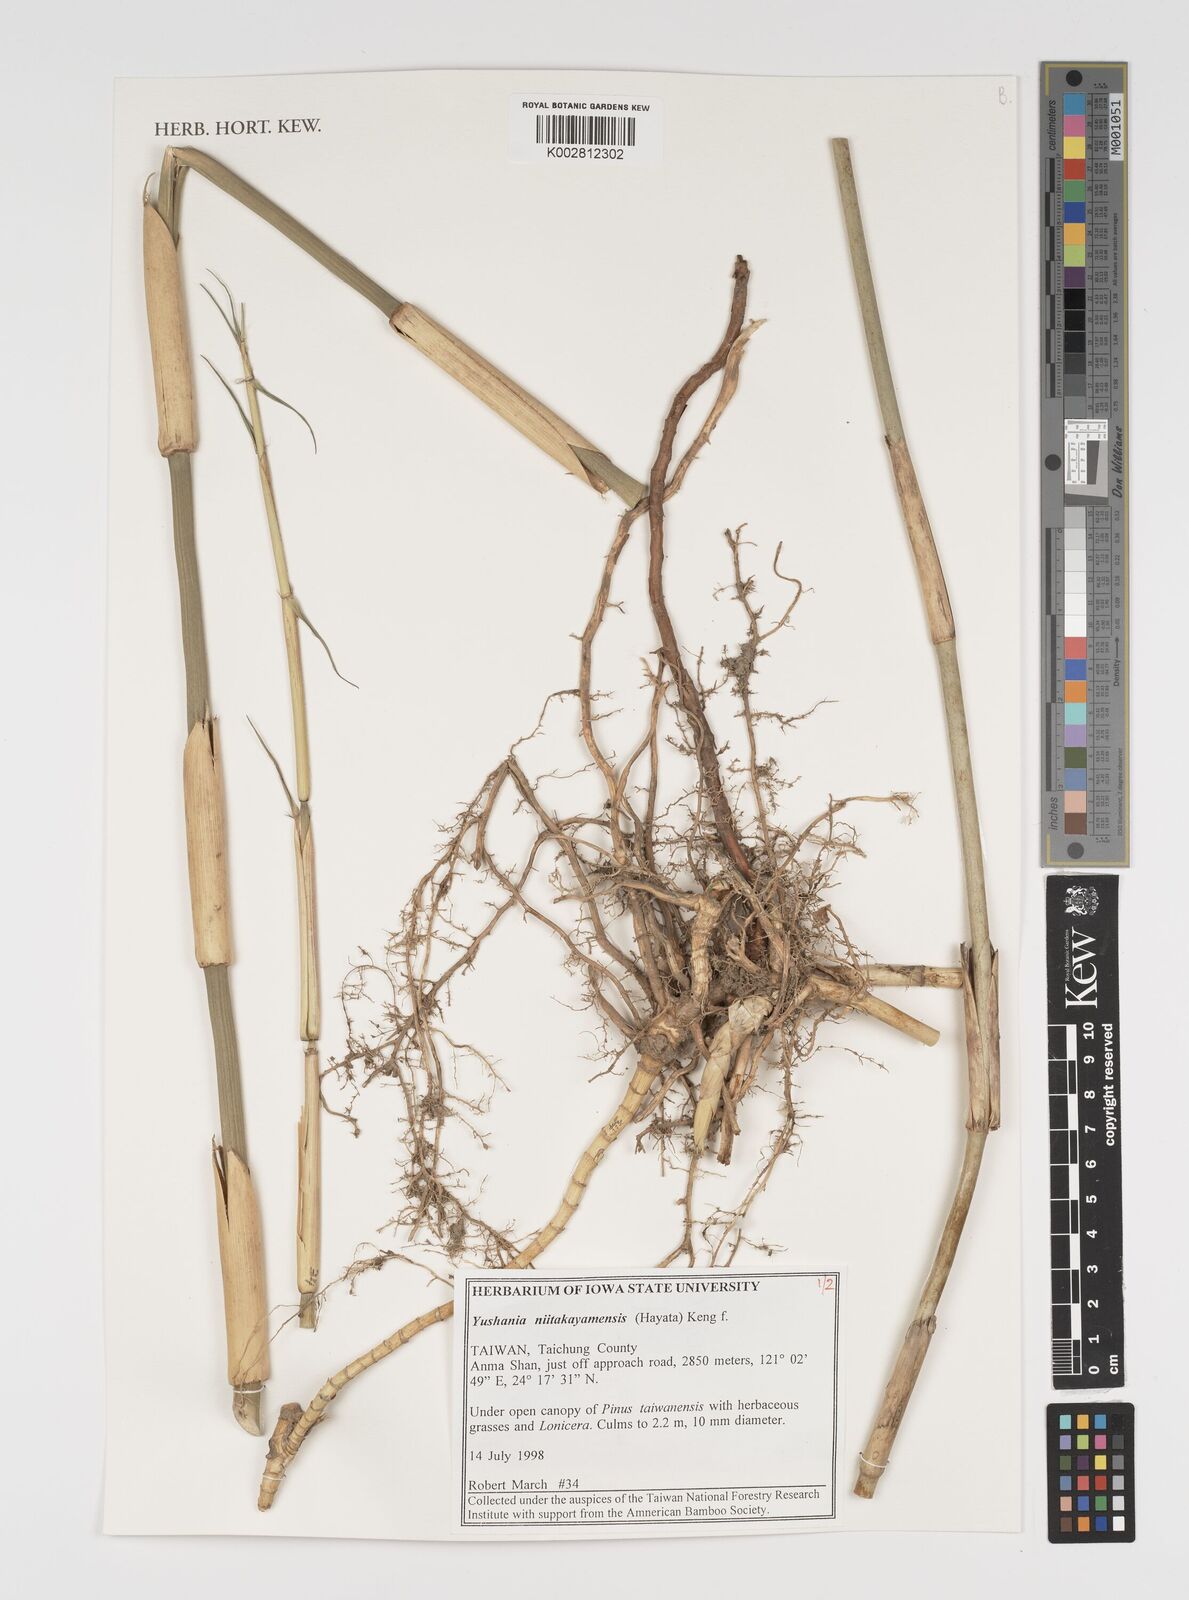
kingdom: Plantae
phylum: Tracheophyta
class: Liliopsida
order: Poales
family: Poaceae
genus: Yushania
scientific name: Yushania niitakayamensis
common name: Yushan cane
